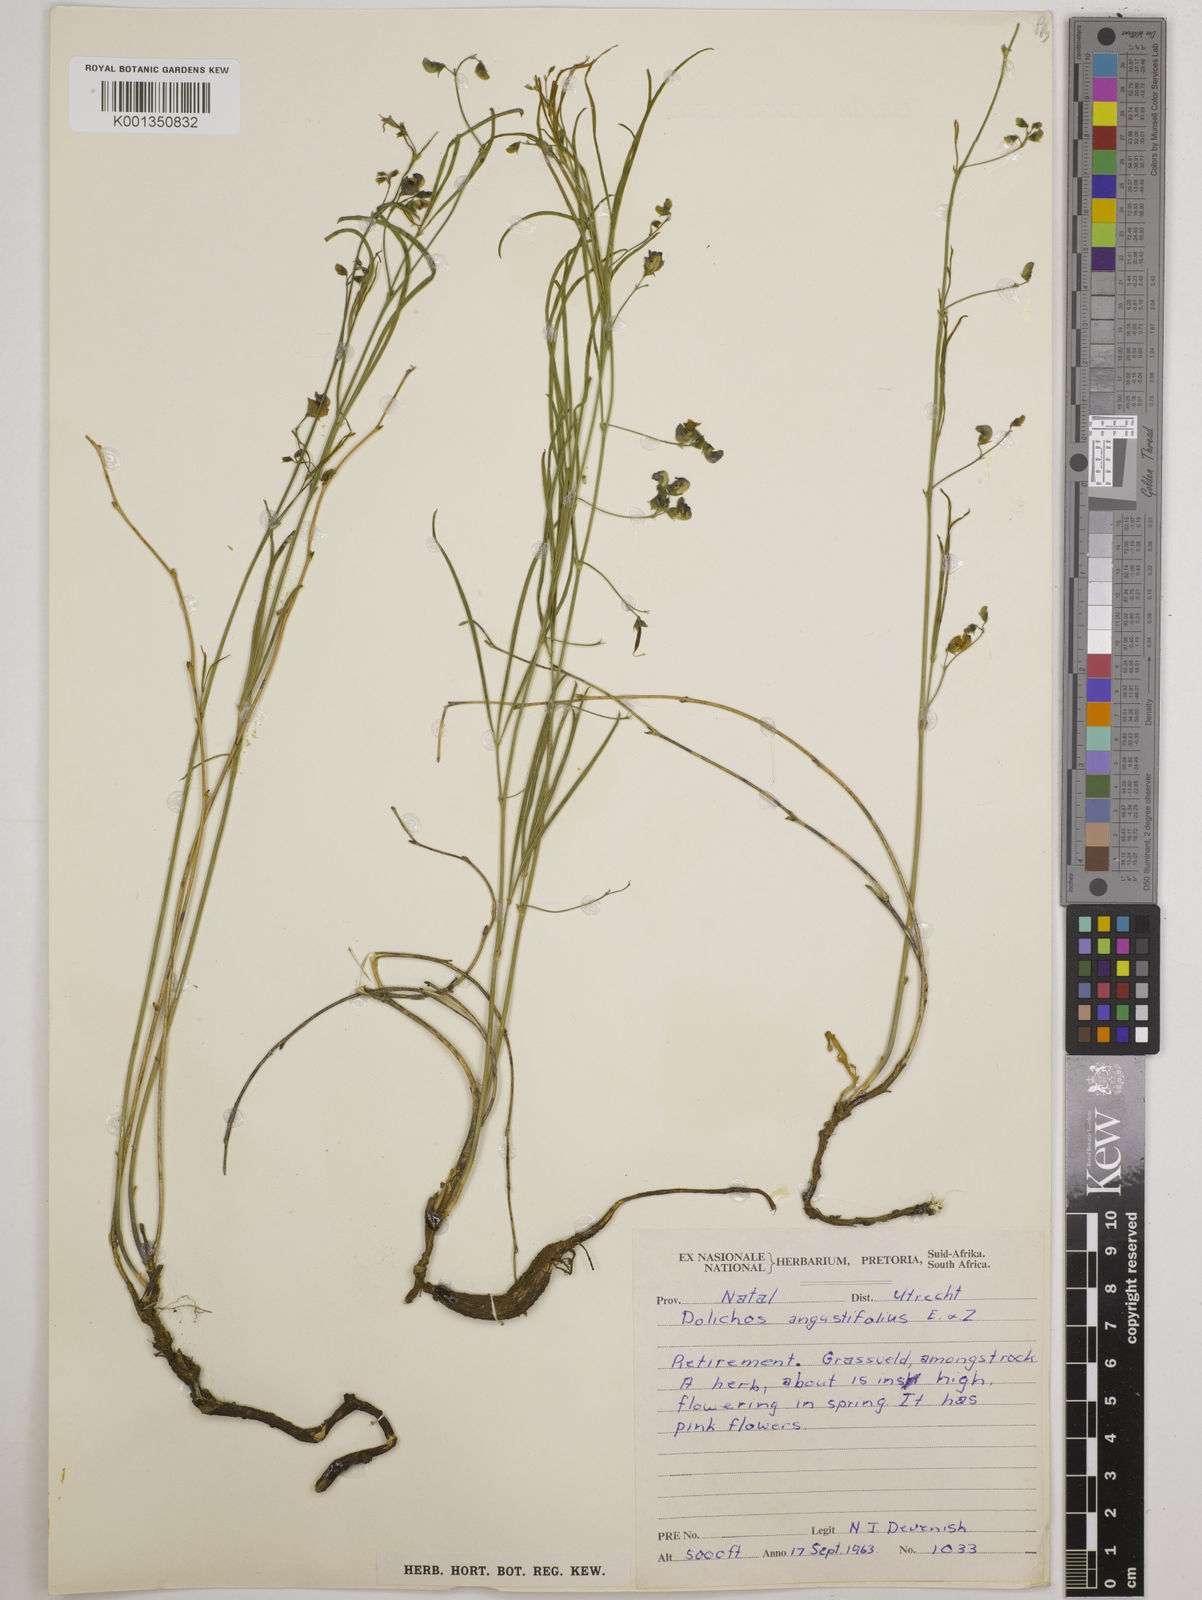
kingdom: Plantae
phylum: Tracheophyta
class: Magnoliopsida
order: Fabales
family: Fabaceae
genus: Dolichos
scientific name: Dolichos
